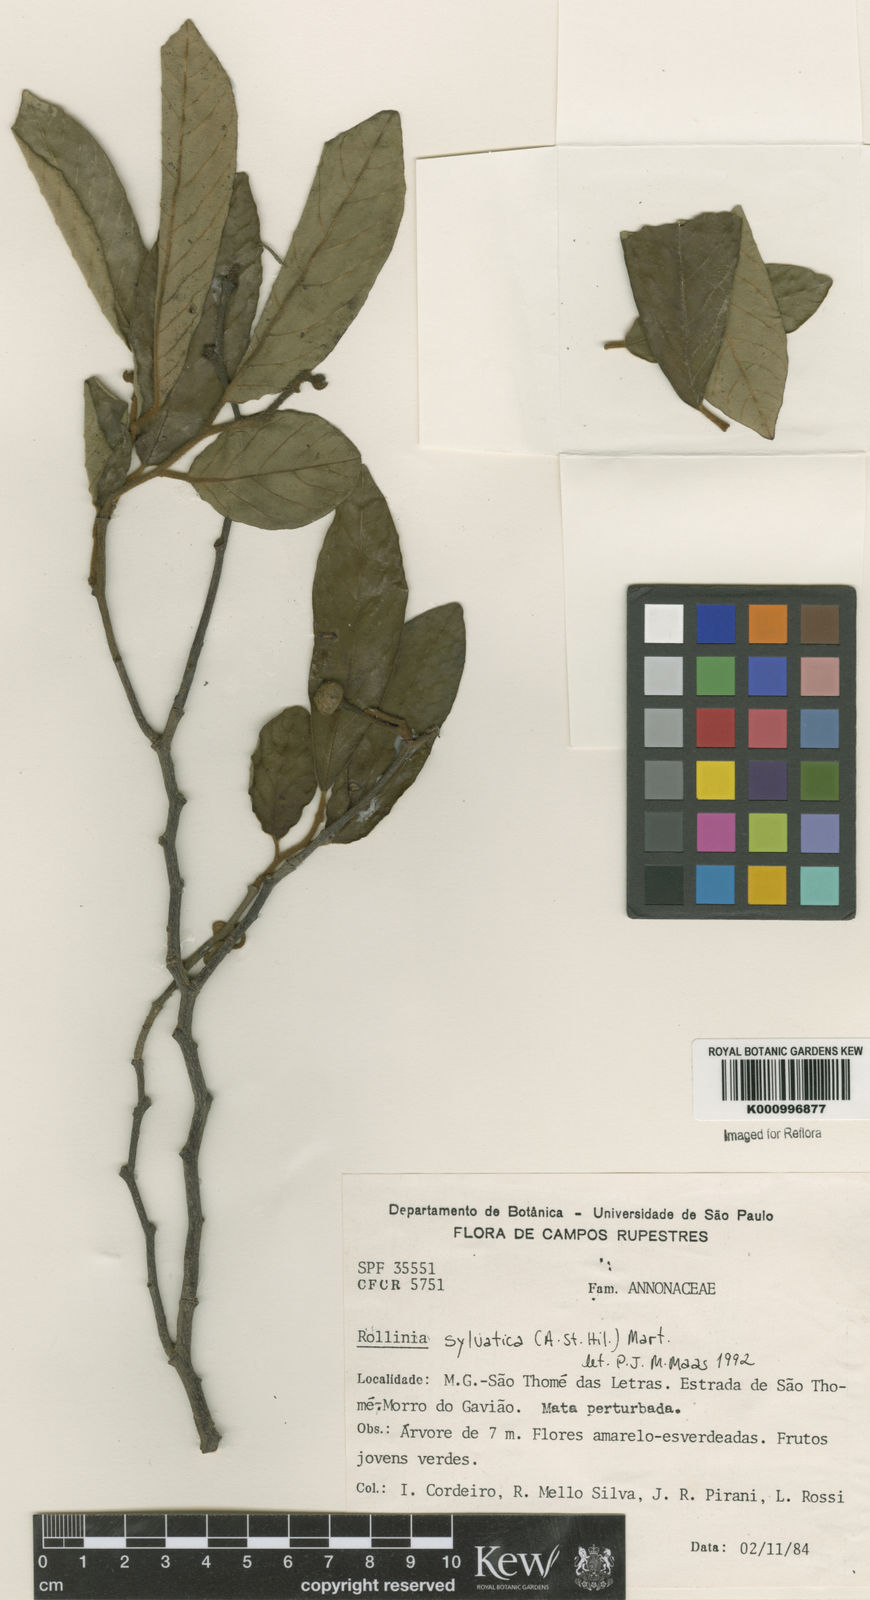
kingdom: Plantae
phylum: Tracheophyta
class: Magnoliopsida
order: Magnoliales
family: Annonaceae
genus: Annona
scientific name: Annona sylvatica
